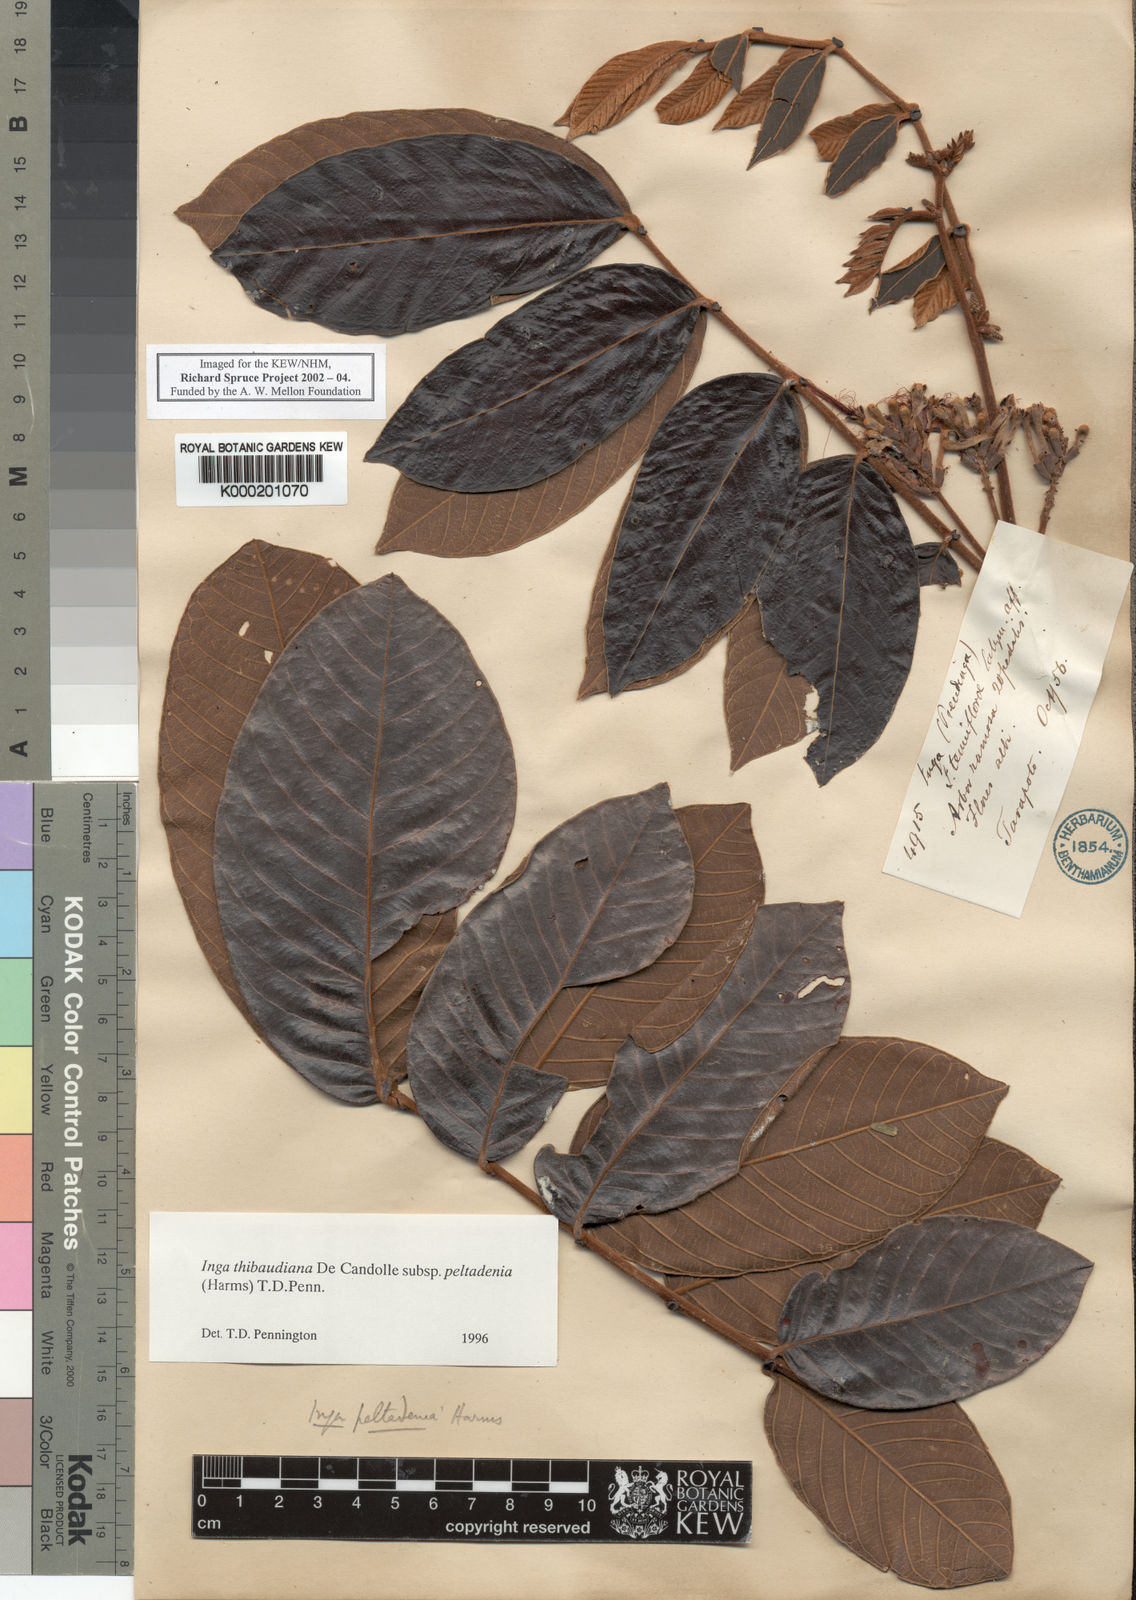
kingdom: Plantae
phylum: Tracheophyta
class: Magnoliopsida
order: Fabales
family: Fabaceae
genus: Inga
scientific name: Inga thibaudiana
